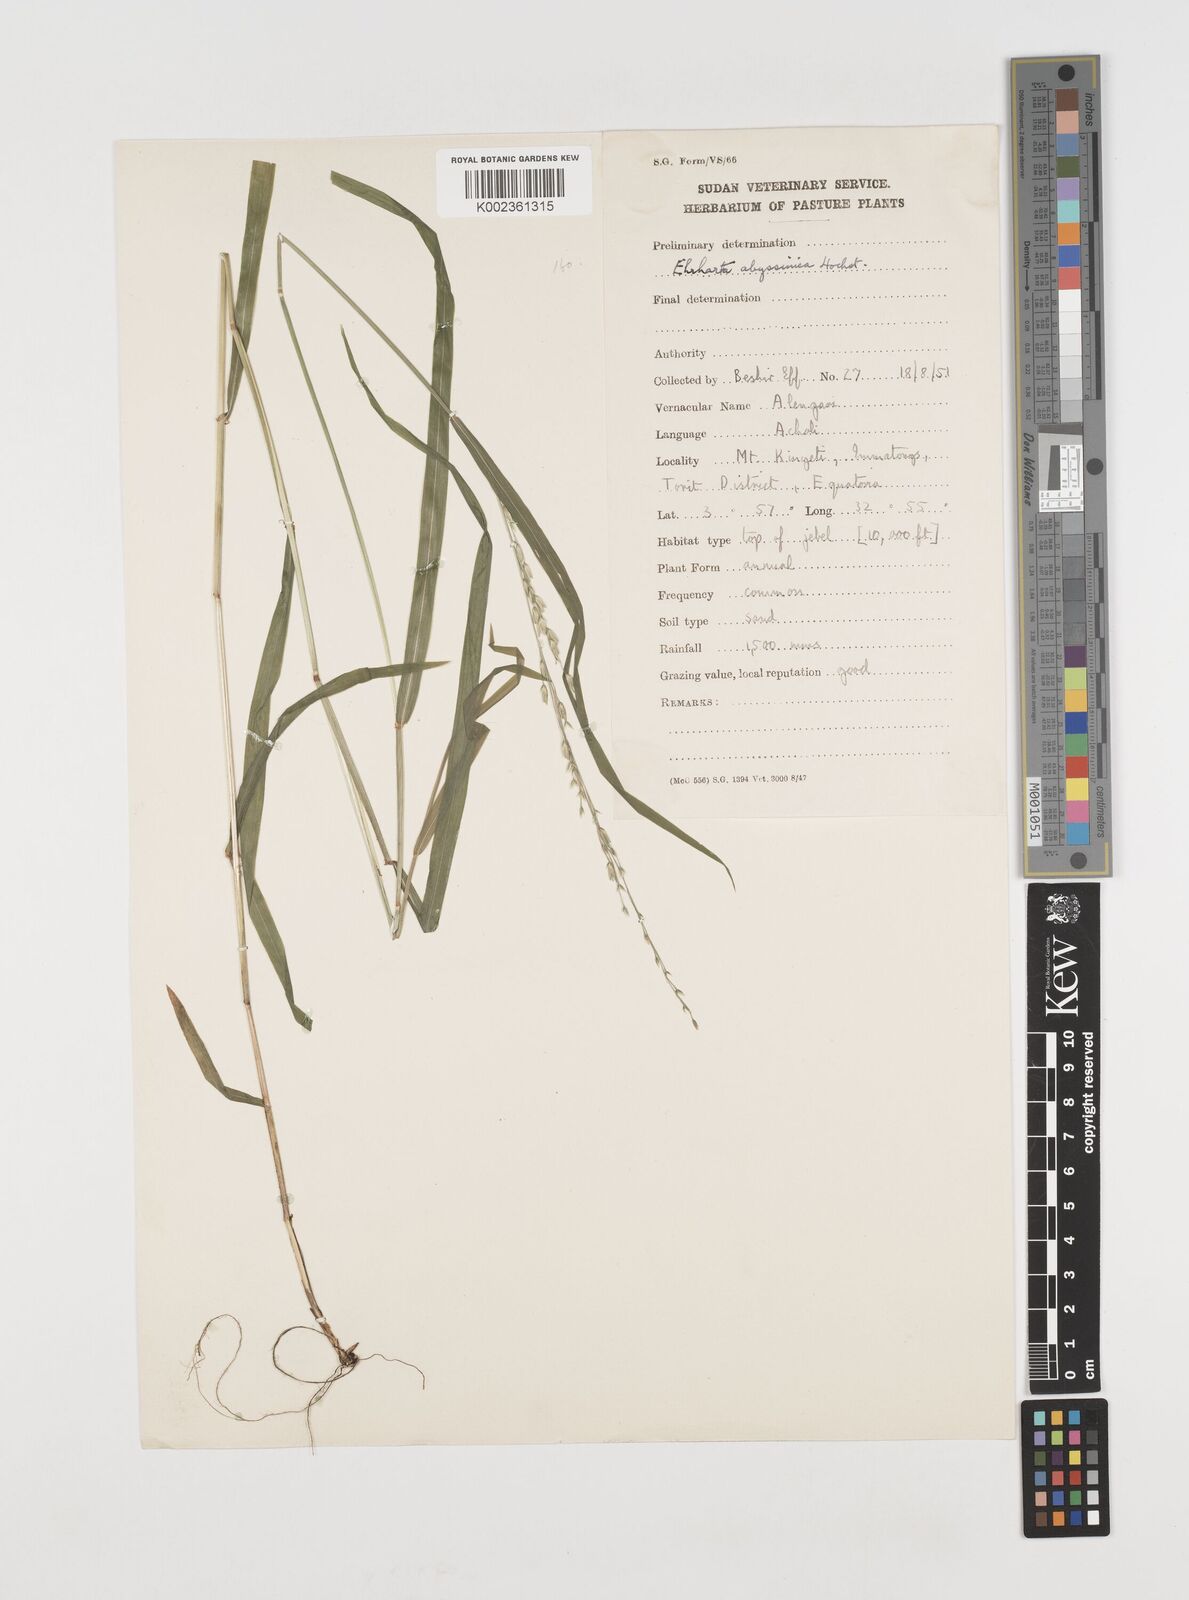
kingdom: Plantae
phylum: Tracheophyta
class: Liliopsida
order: Poales
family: Poaceae
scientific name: Poaceae
